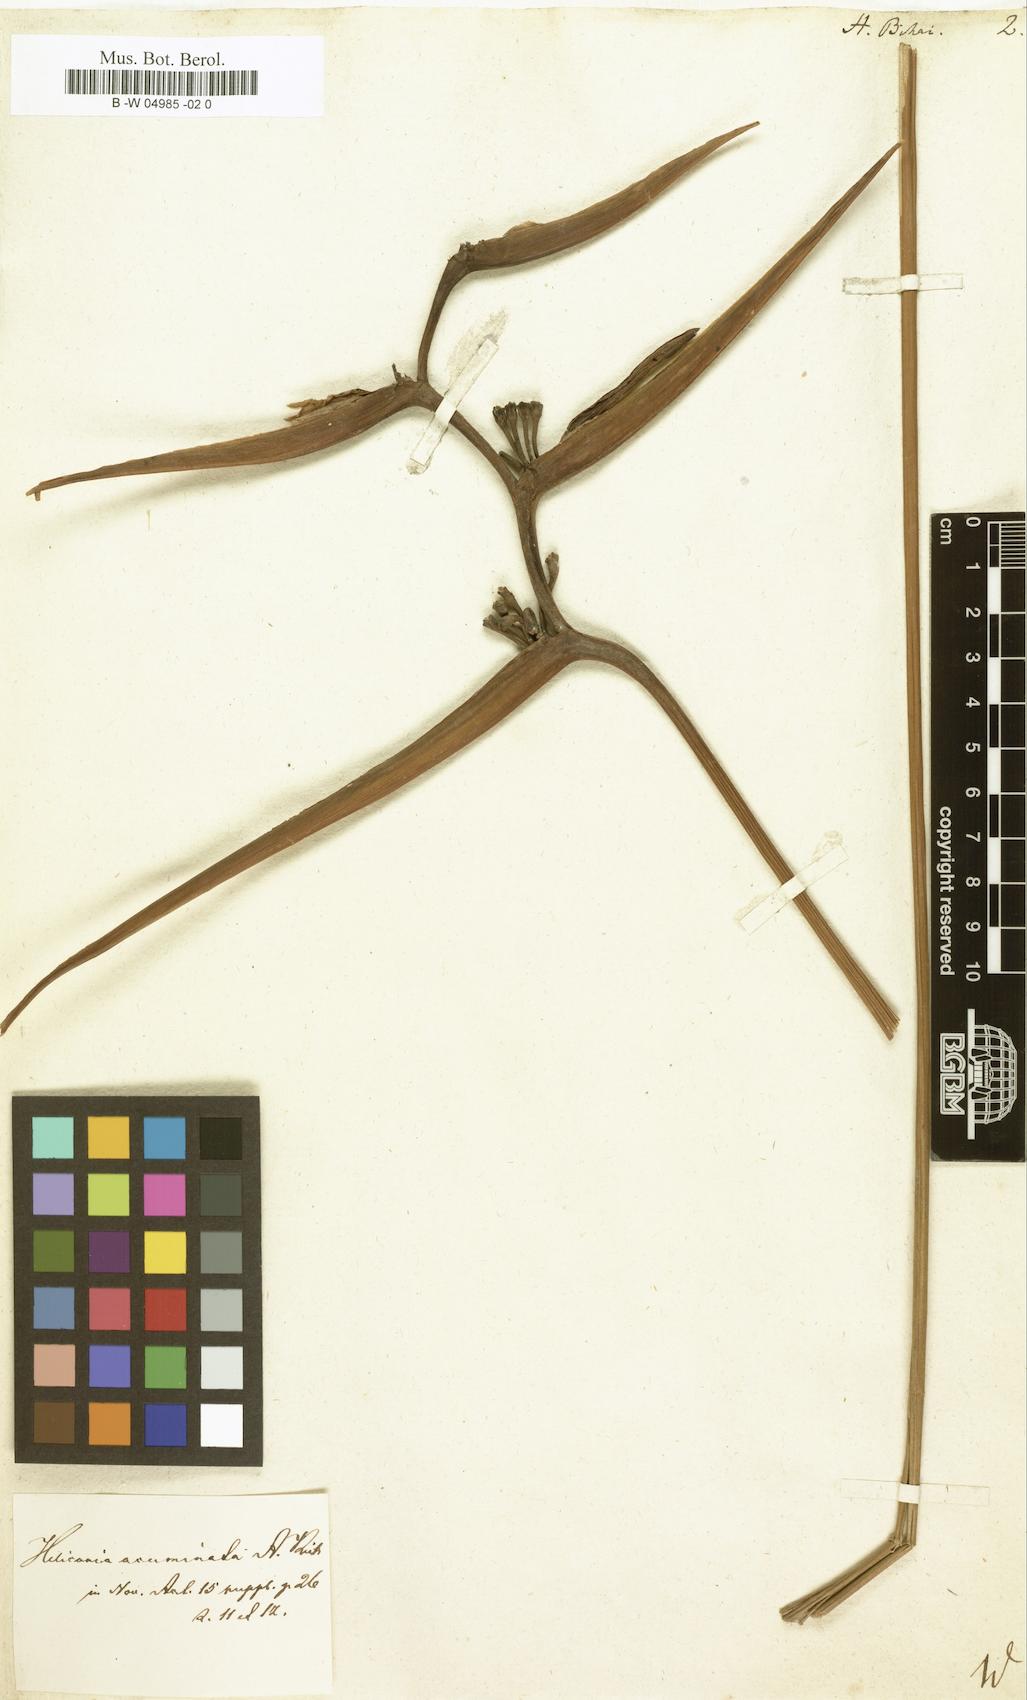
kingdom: Plantae
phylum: Tracheophyta
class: Liliopsida
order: Zingiberales
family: Heliconiaceae
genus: Heliconia
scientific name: Heliconia bihai
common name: Macaw flower
